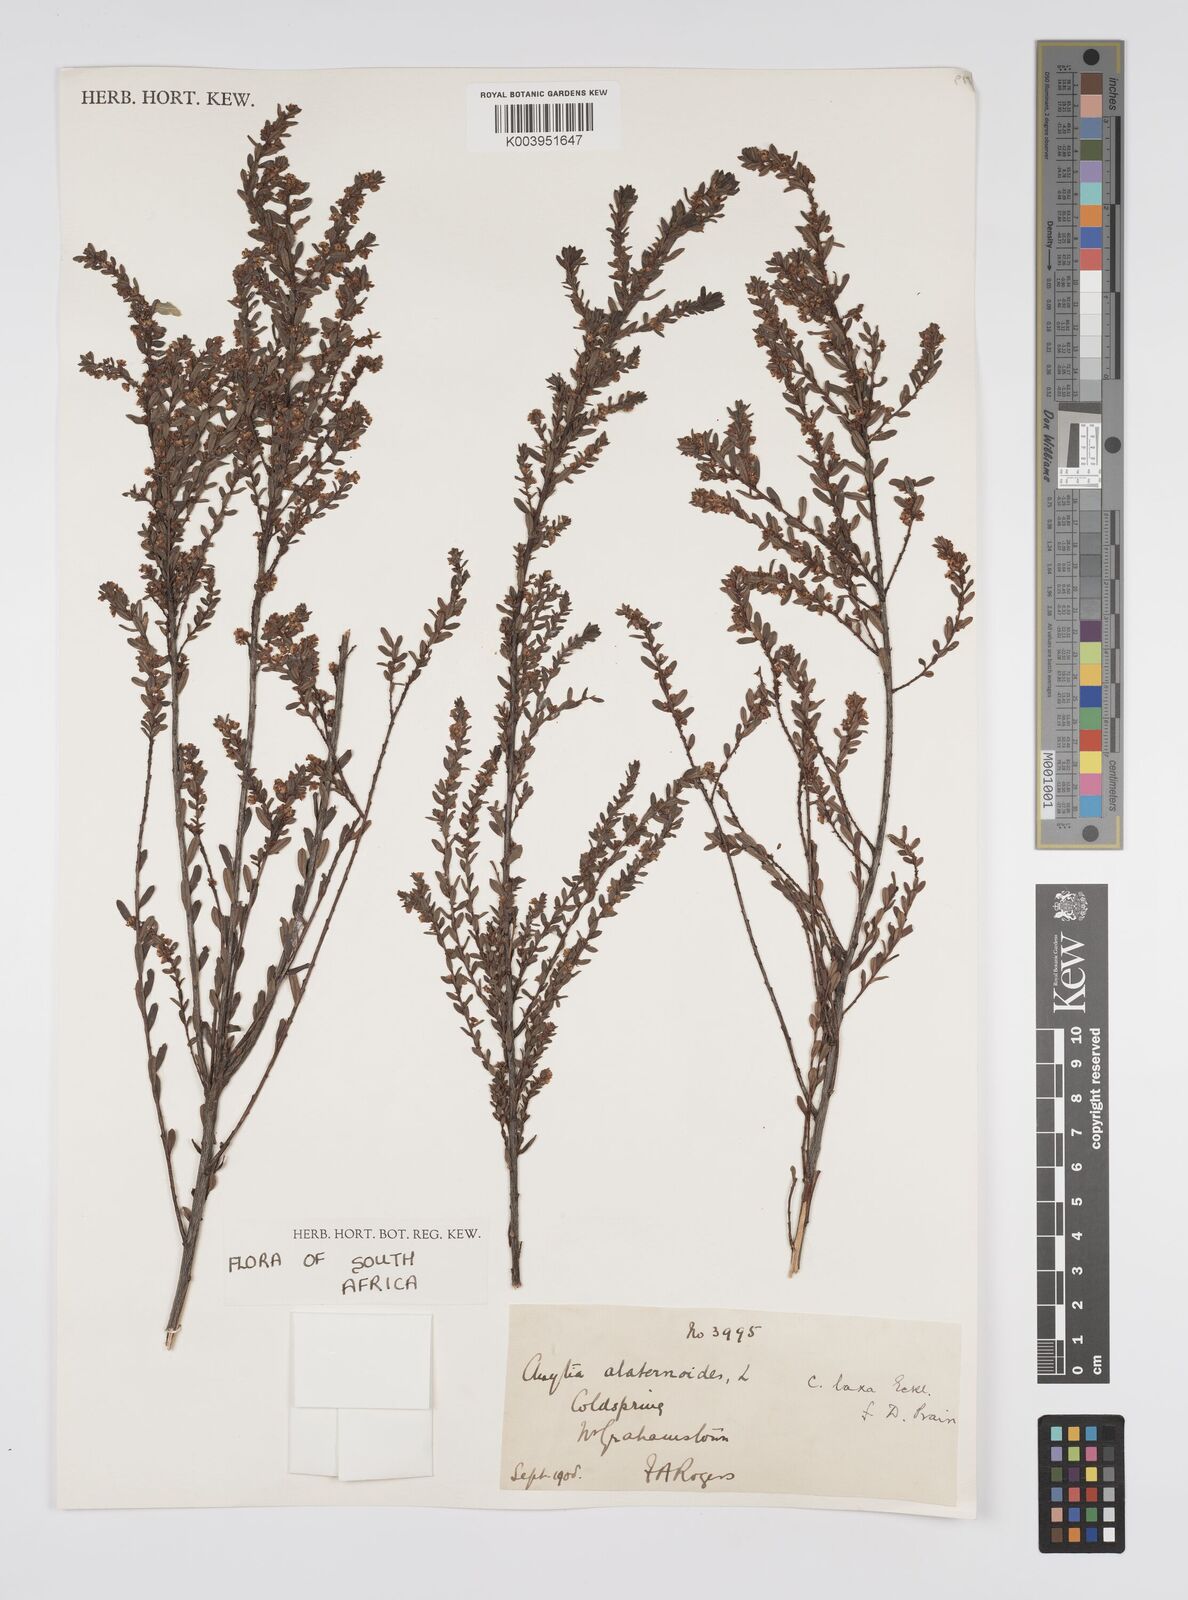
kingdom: Plantae
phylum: Tracheophyta
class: Magnoliopsida
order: Malpighiales
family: Peraceae
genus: Clutia
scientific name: Clutia laxa
